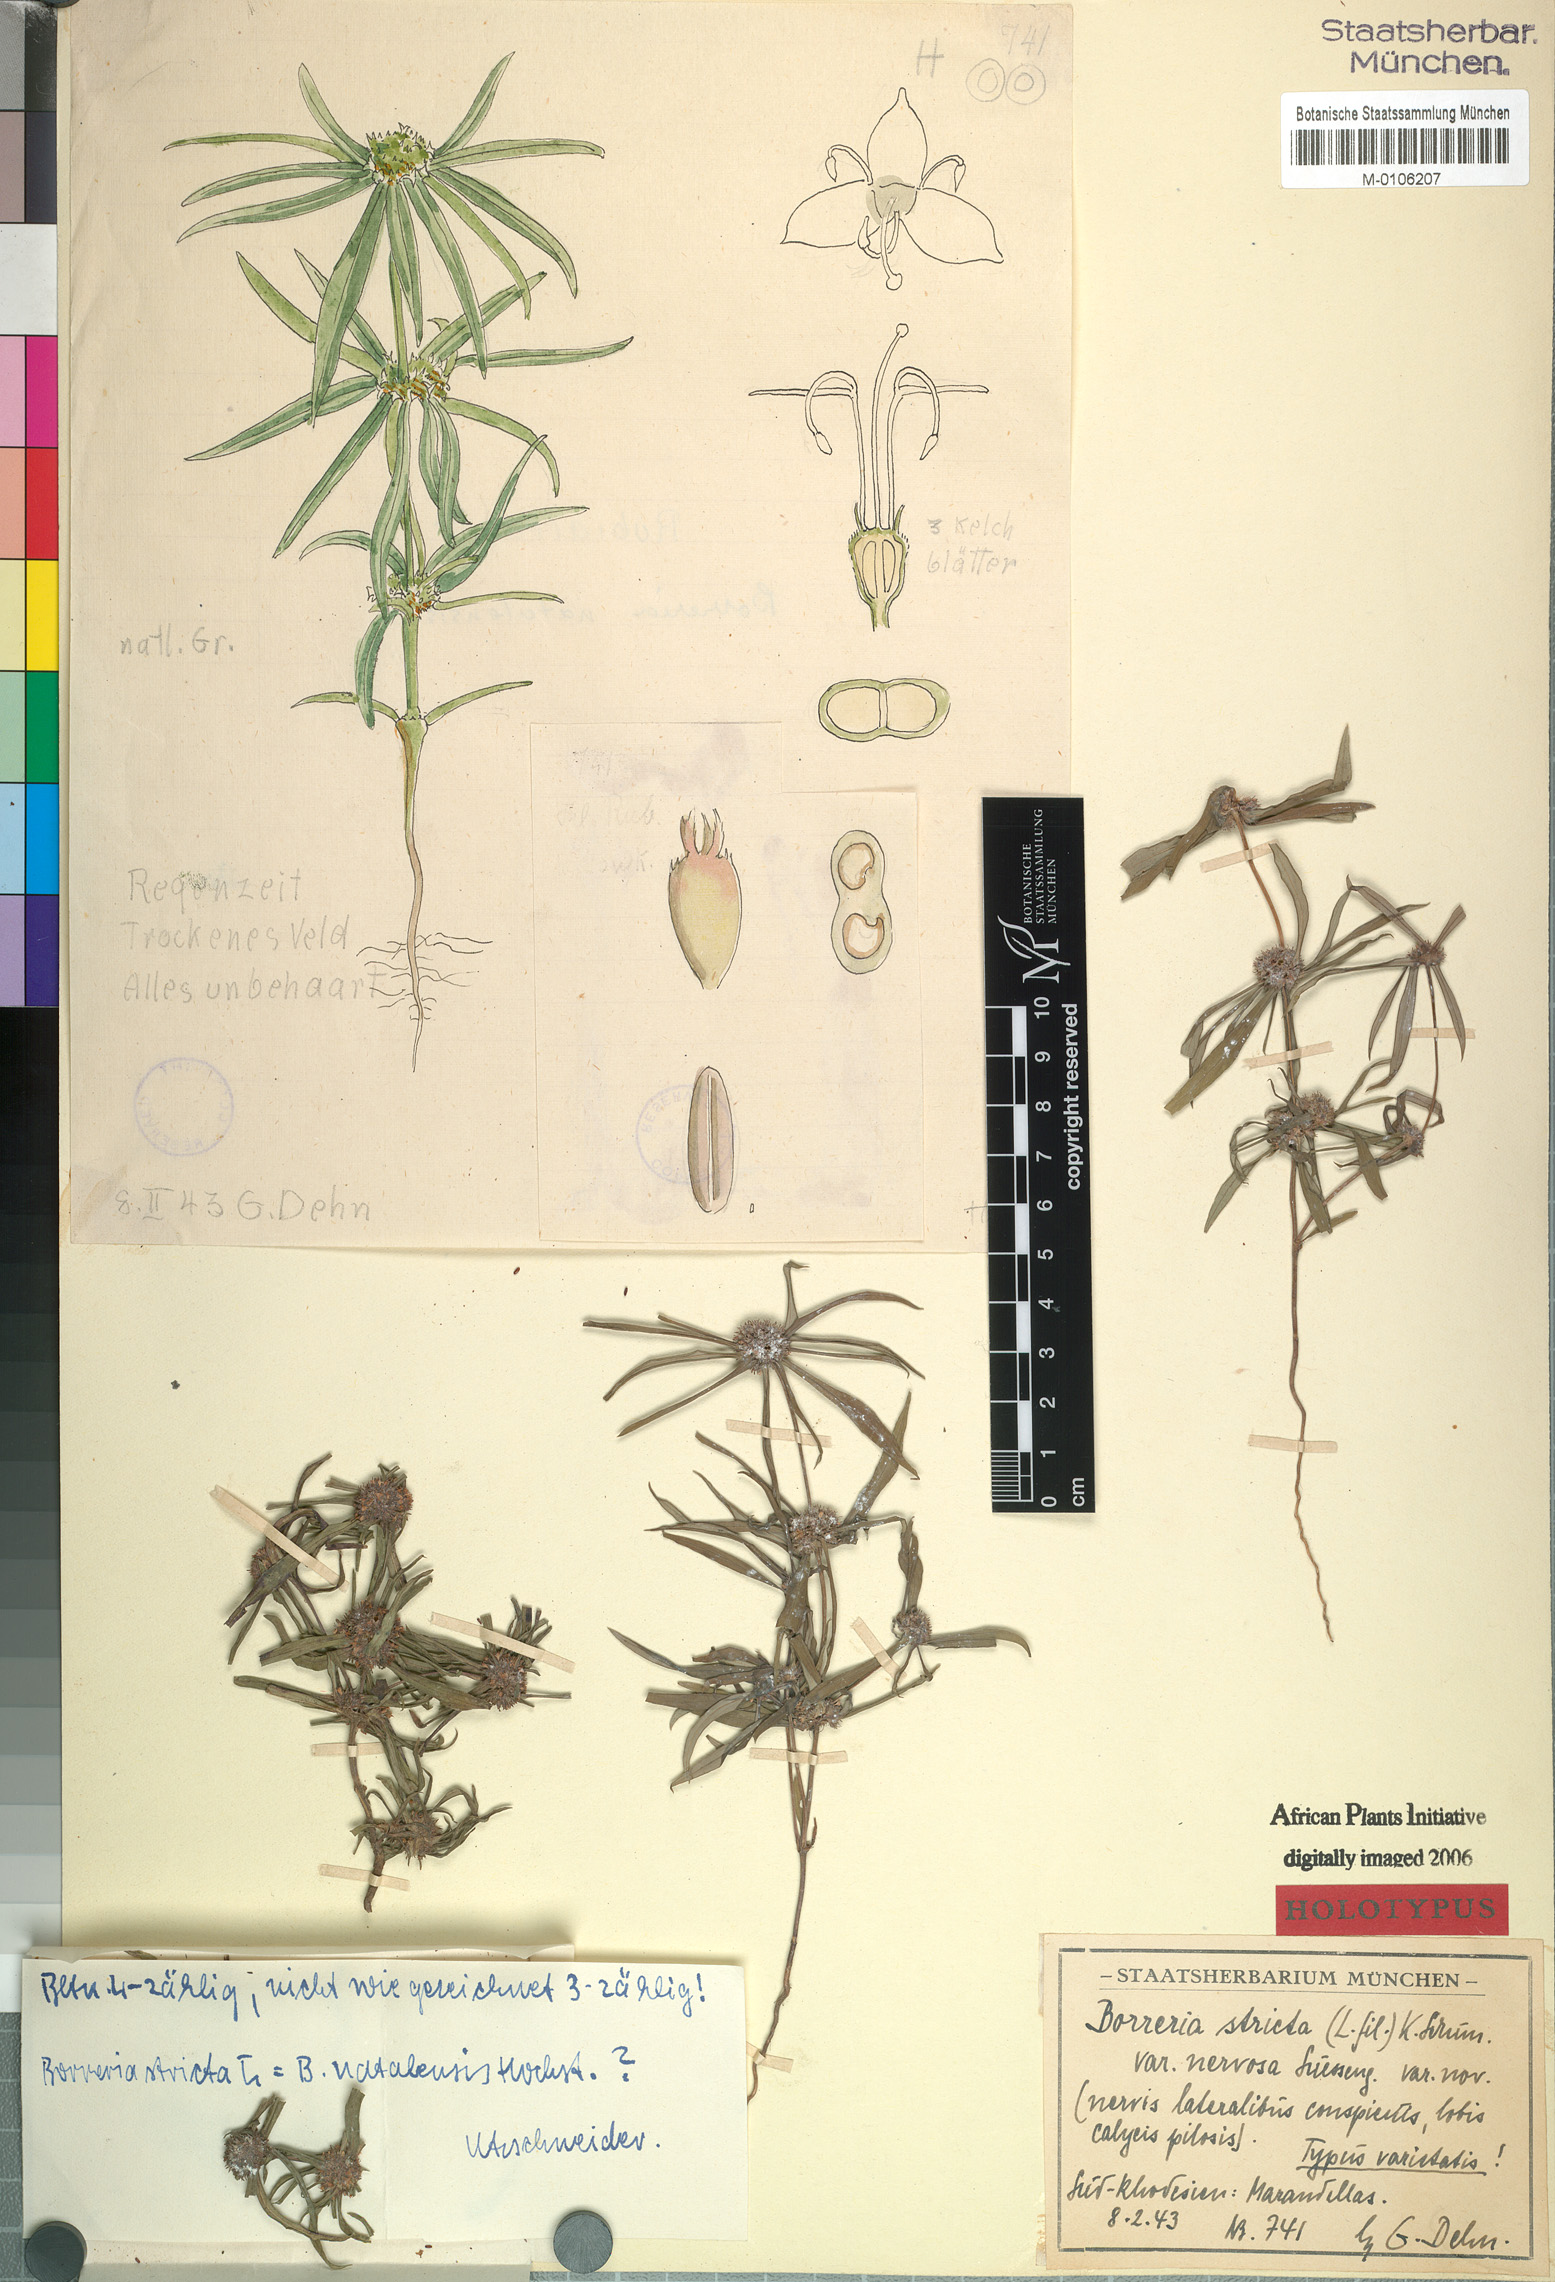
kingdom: Plantae
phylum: Tracheophyta
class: Magnoliopsida
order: Gentianales
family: Rubiaceae
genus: Spermacoce
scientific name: Spermacoce ocymoides
